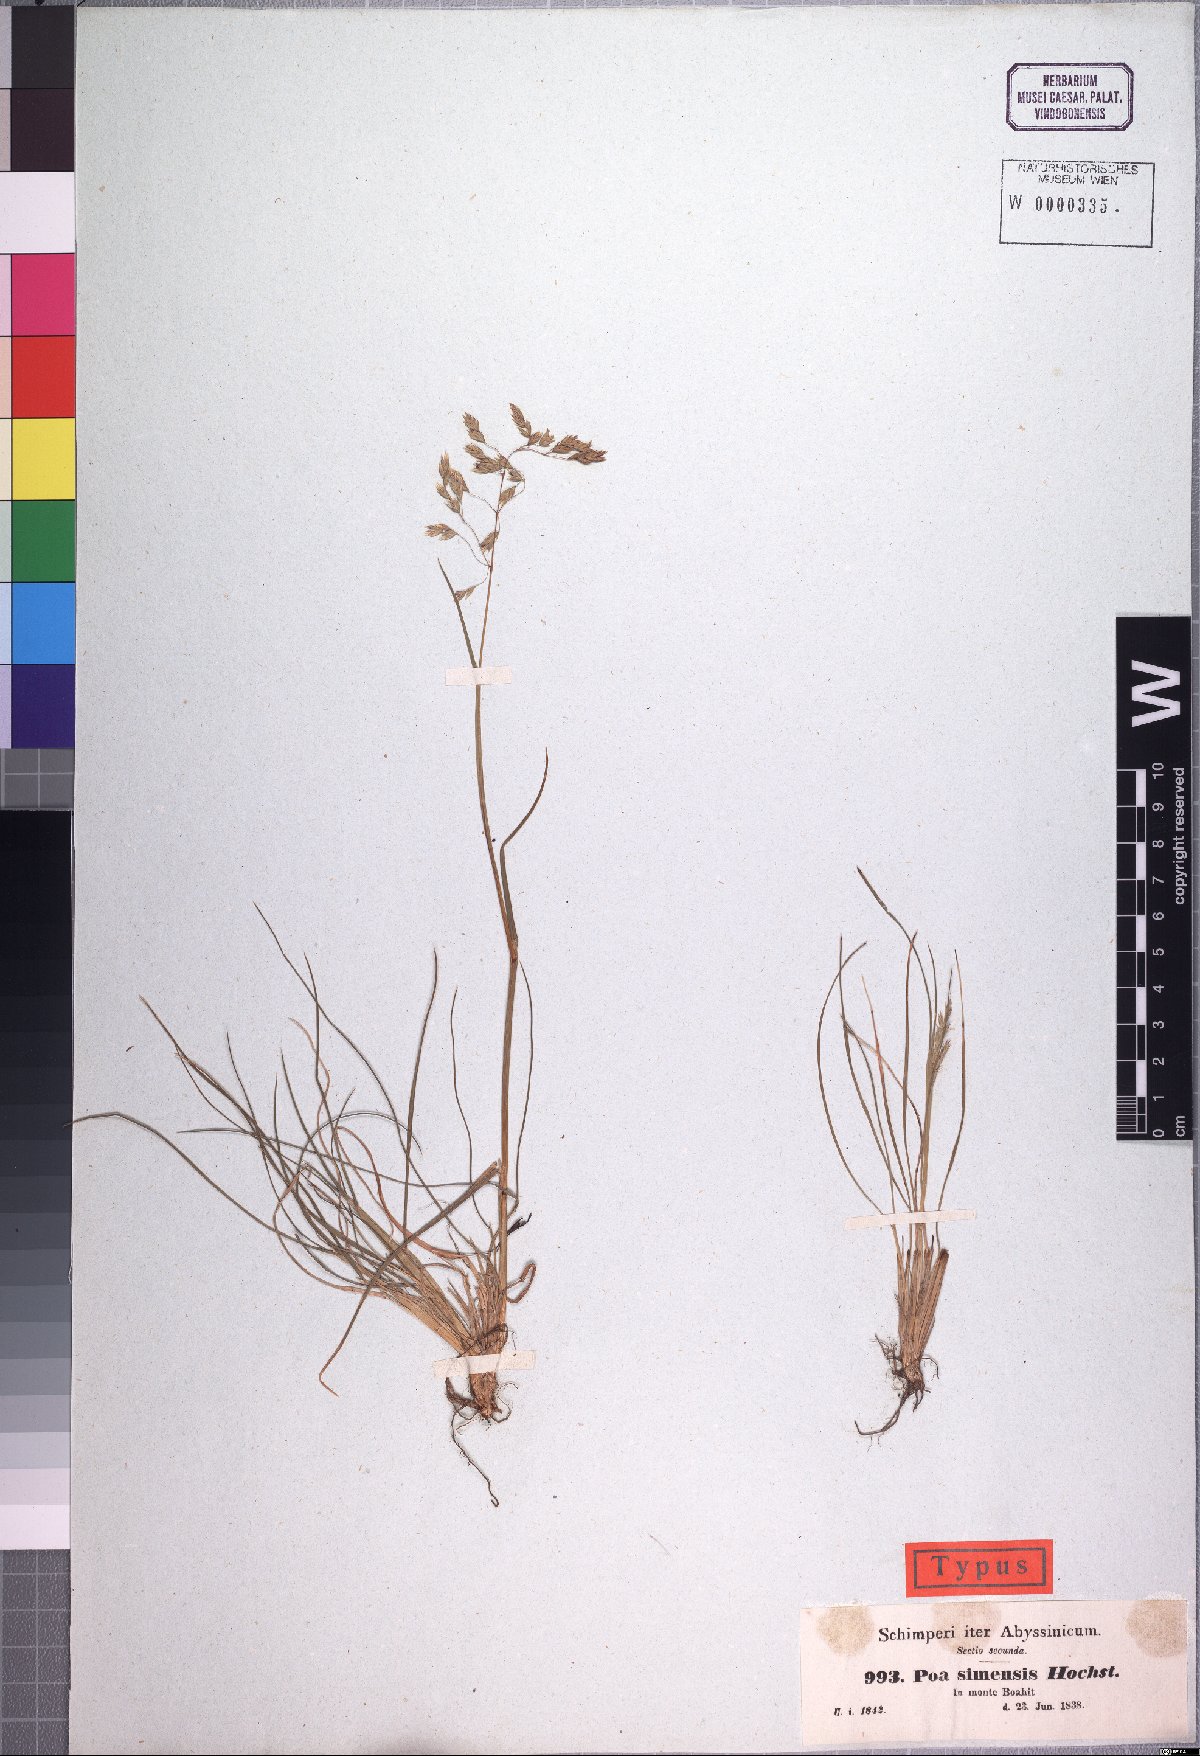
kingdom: Plantae
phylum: Tracheophyta
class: Liliopsida
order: Poales
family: Poaceae
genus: Poa
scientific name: Poa simensis
